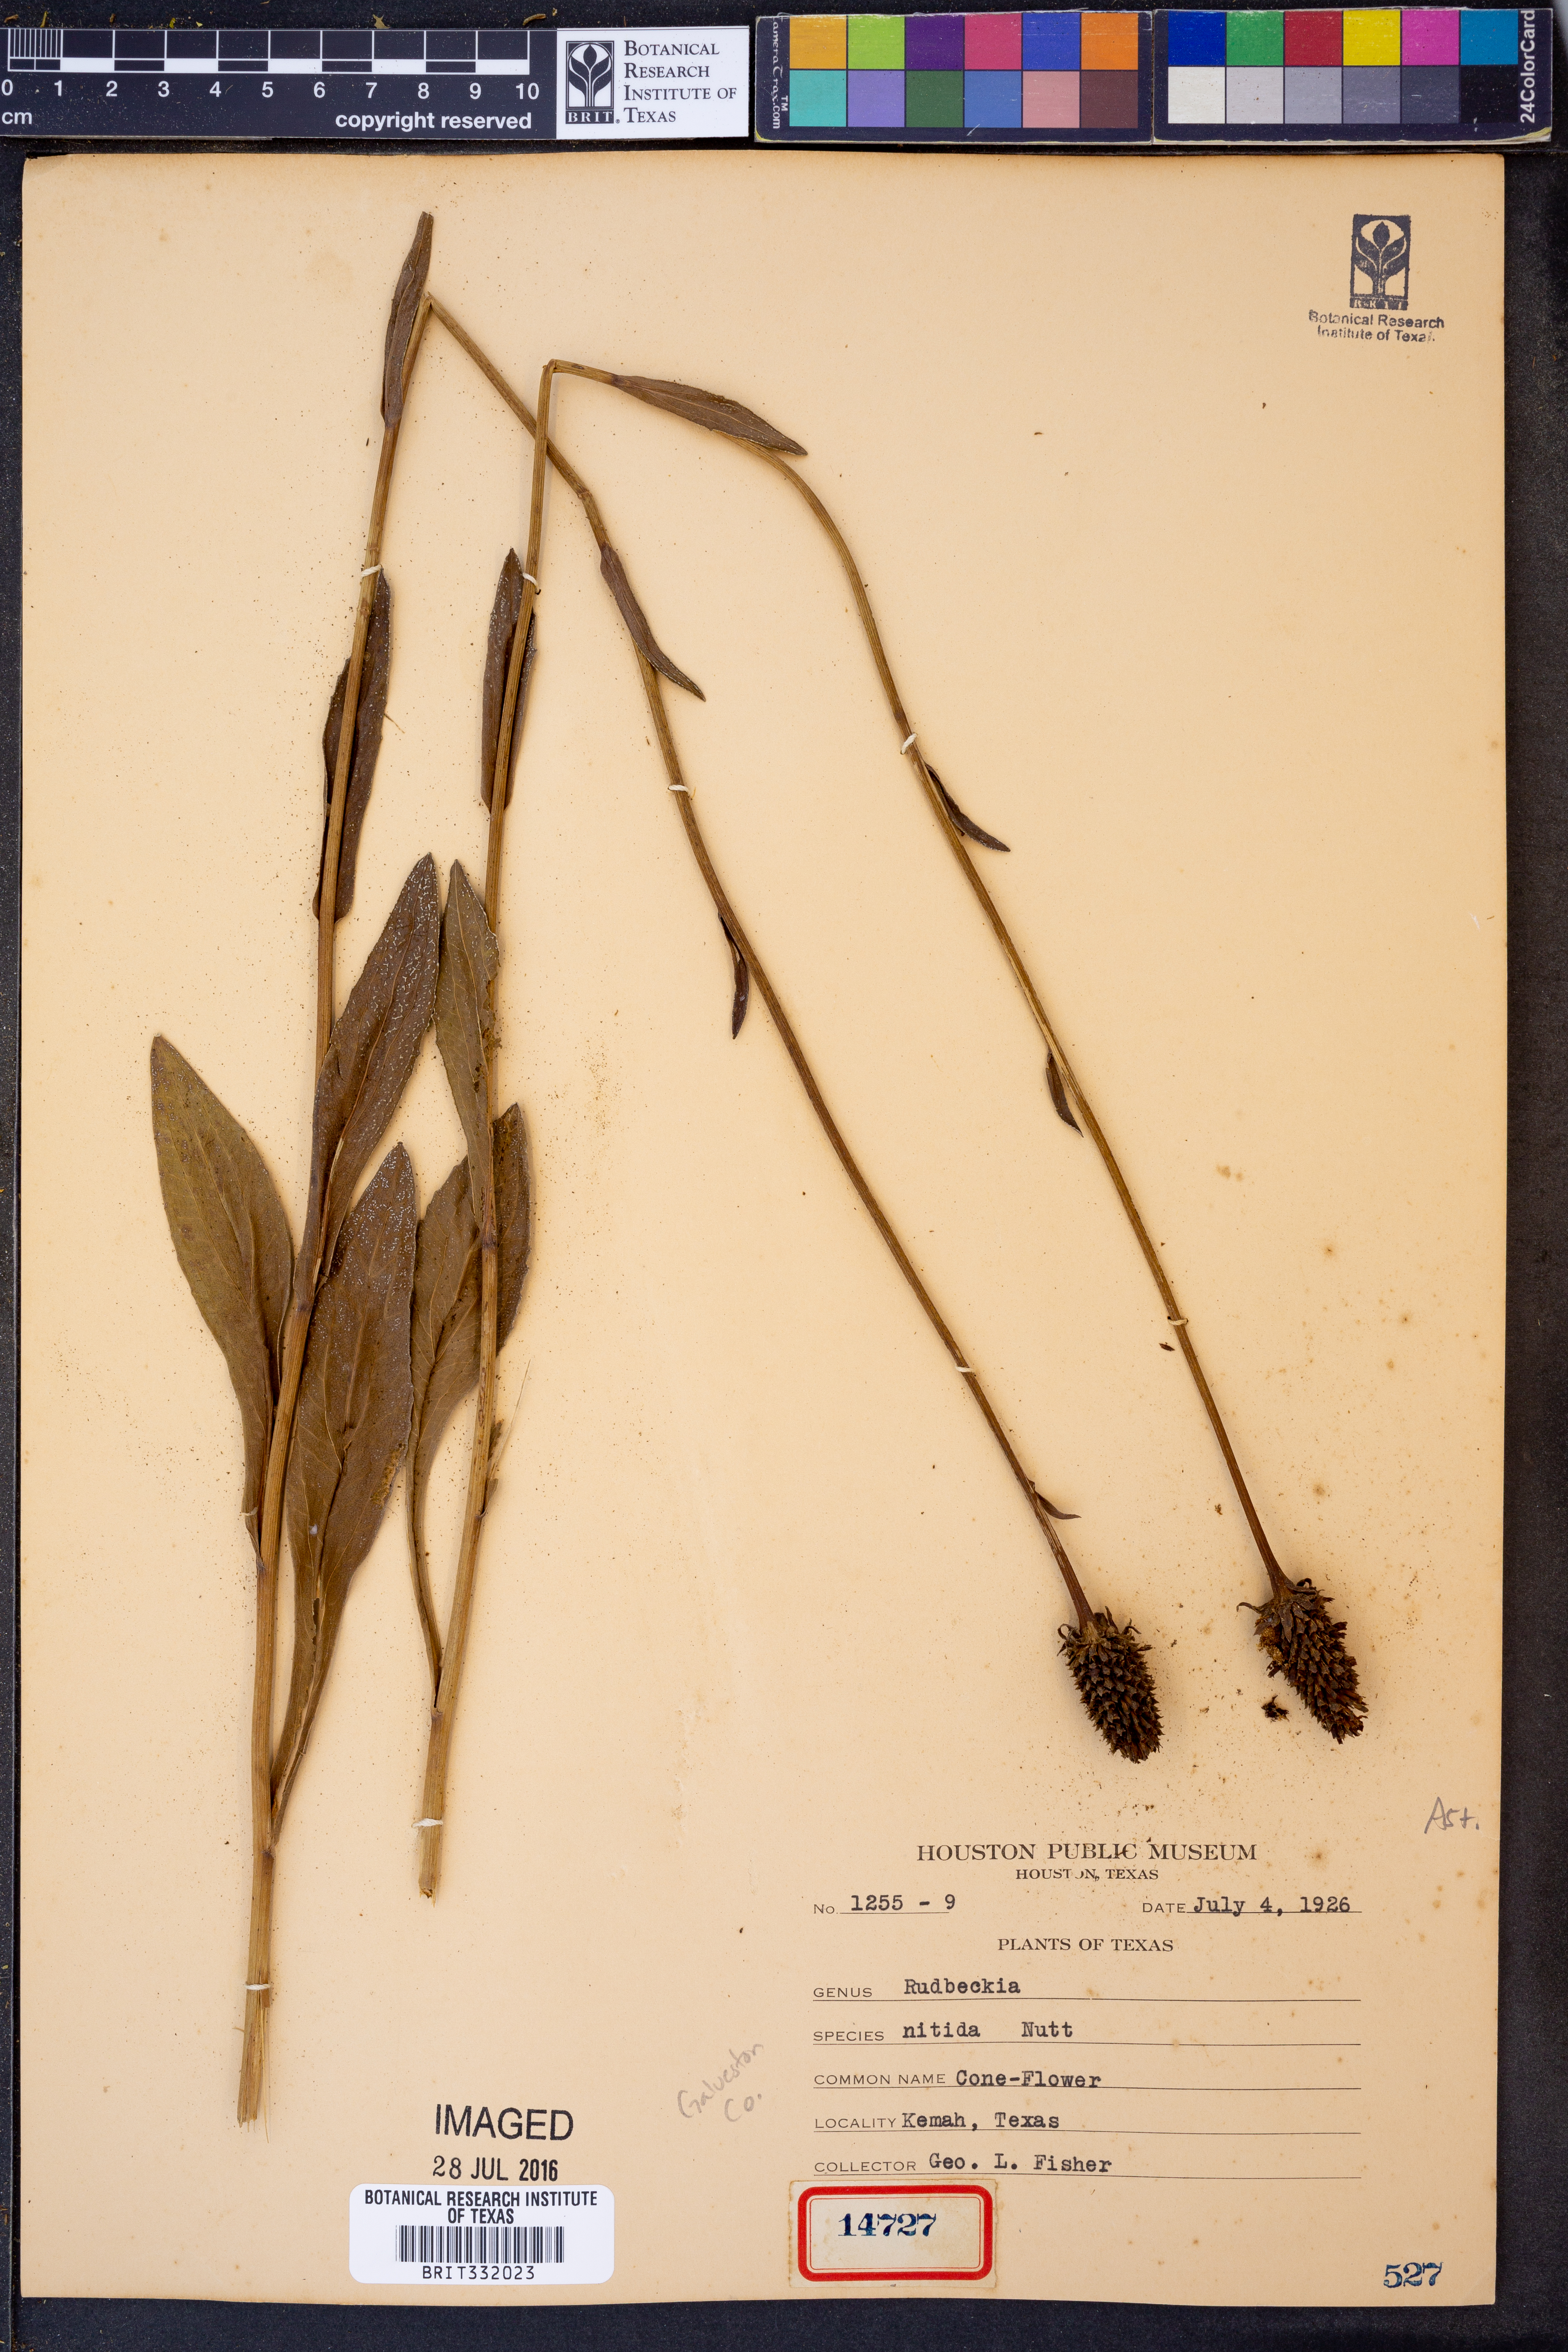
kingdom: Plantae
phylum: Tracheophyta
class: Magnoliopsida
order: Asterales
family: Asteraceae
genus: Rudbeckia
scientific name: Rudbeckia
